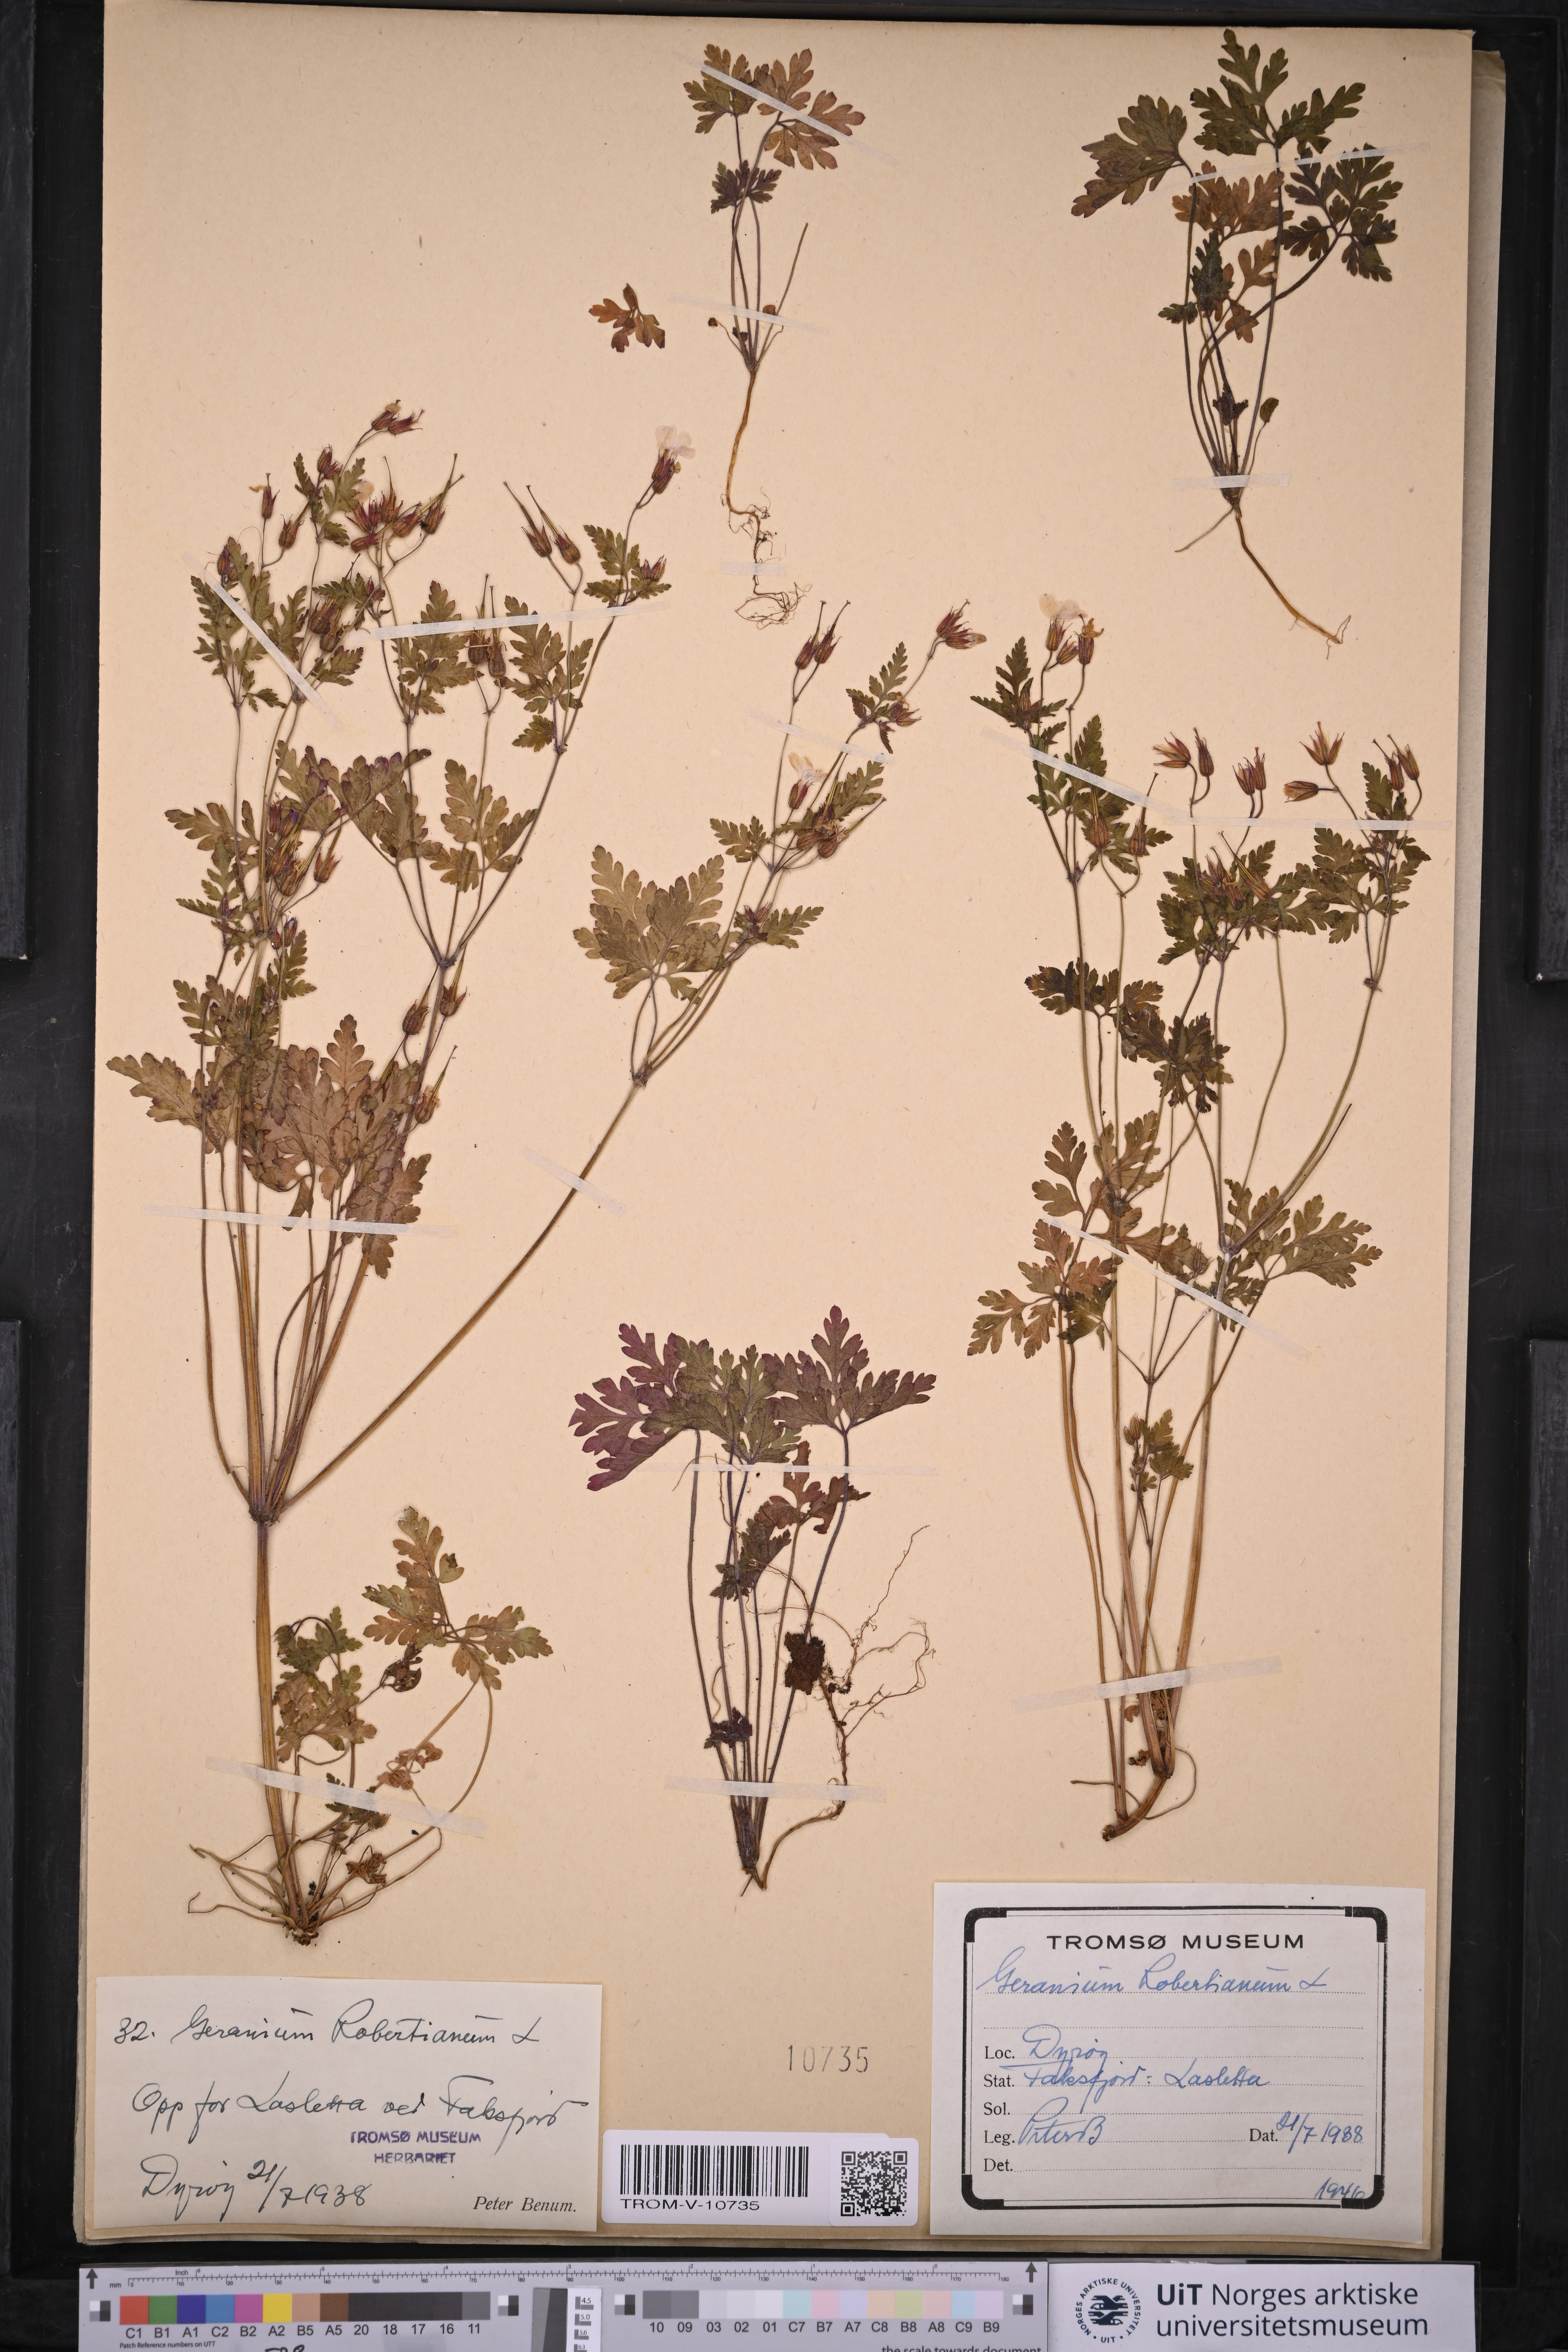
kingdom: Plantae
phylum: Tracheophyta
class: Magnoliopsida
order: Geraniales
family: Geraniaceae
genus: Geranium
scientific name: Geranium robertianum
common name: Herb-robert
